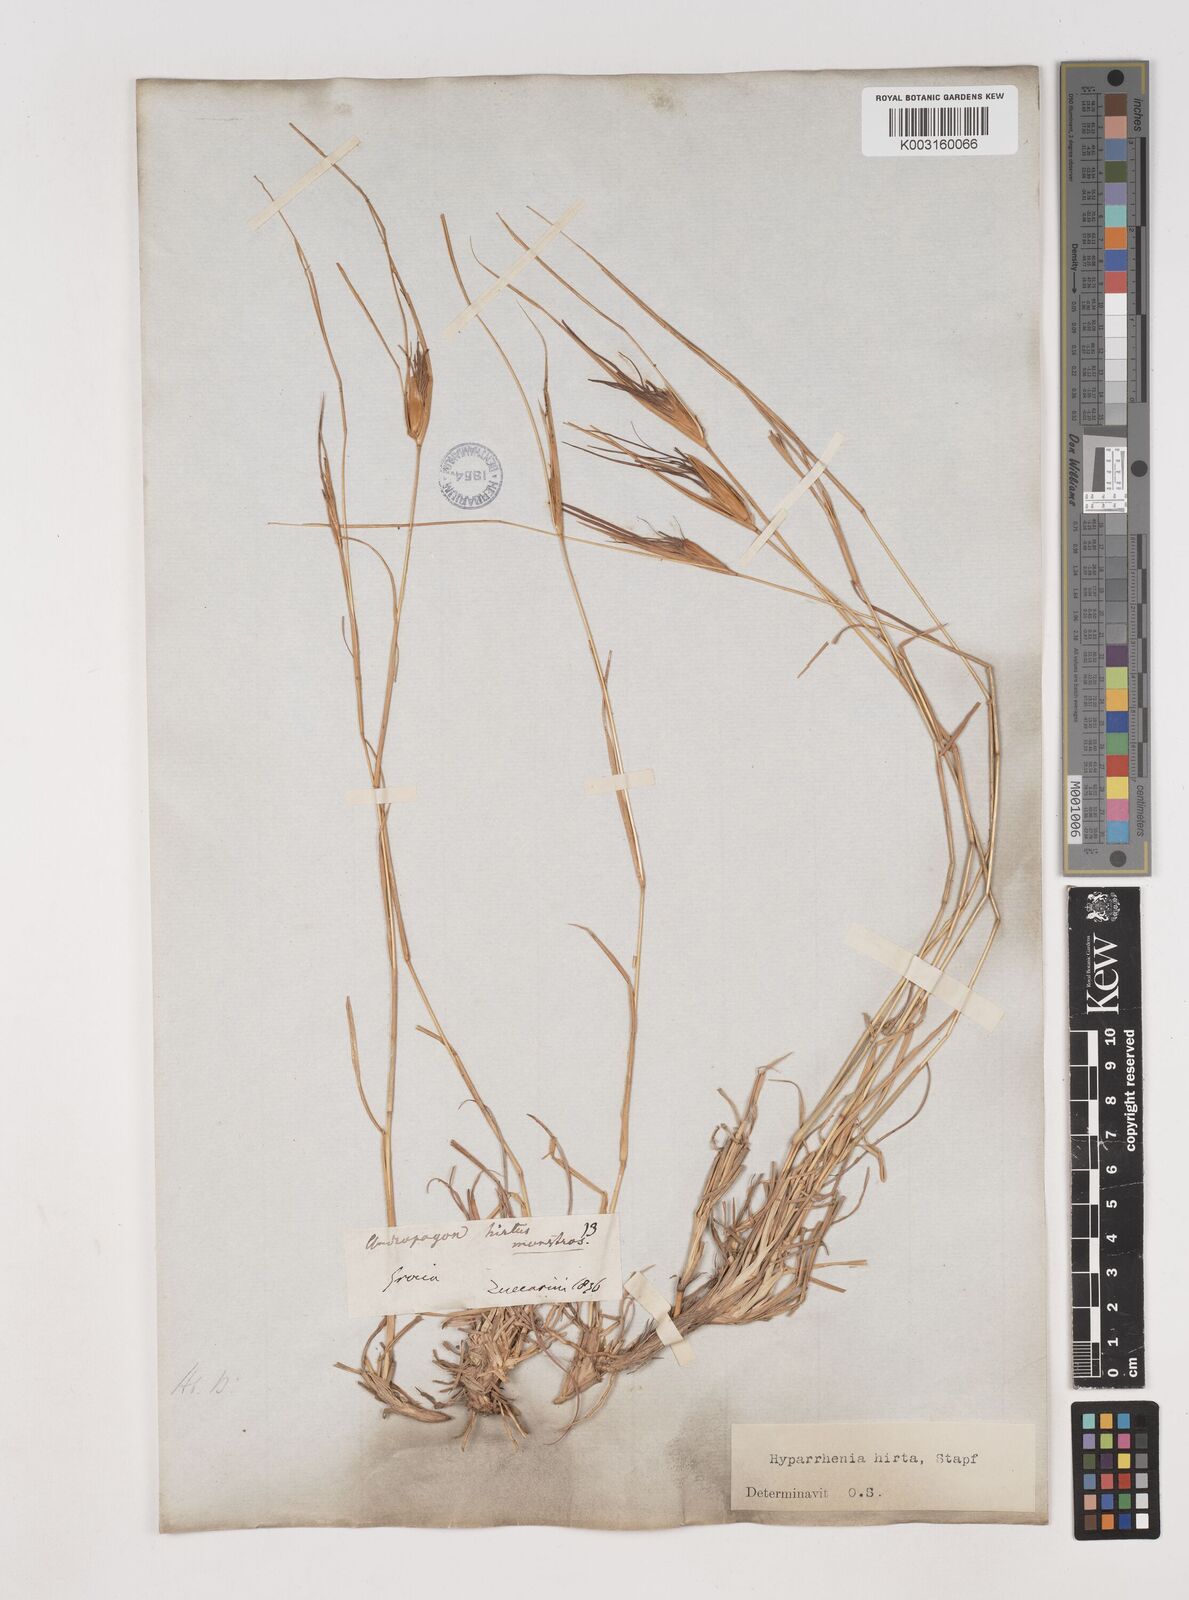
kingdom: Plantae
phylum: Tracheophyta
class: Liliopsida
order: Poales
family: Poaceae
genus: Hyparrhenia
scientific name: Hyparrhenia hirta
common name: Thatching grass
